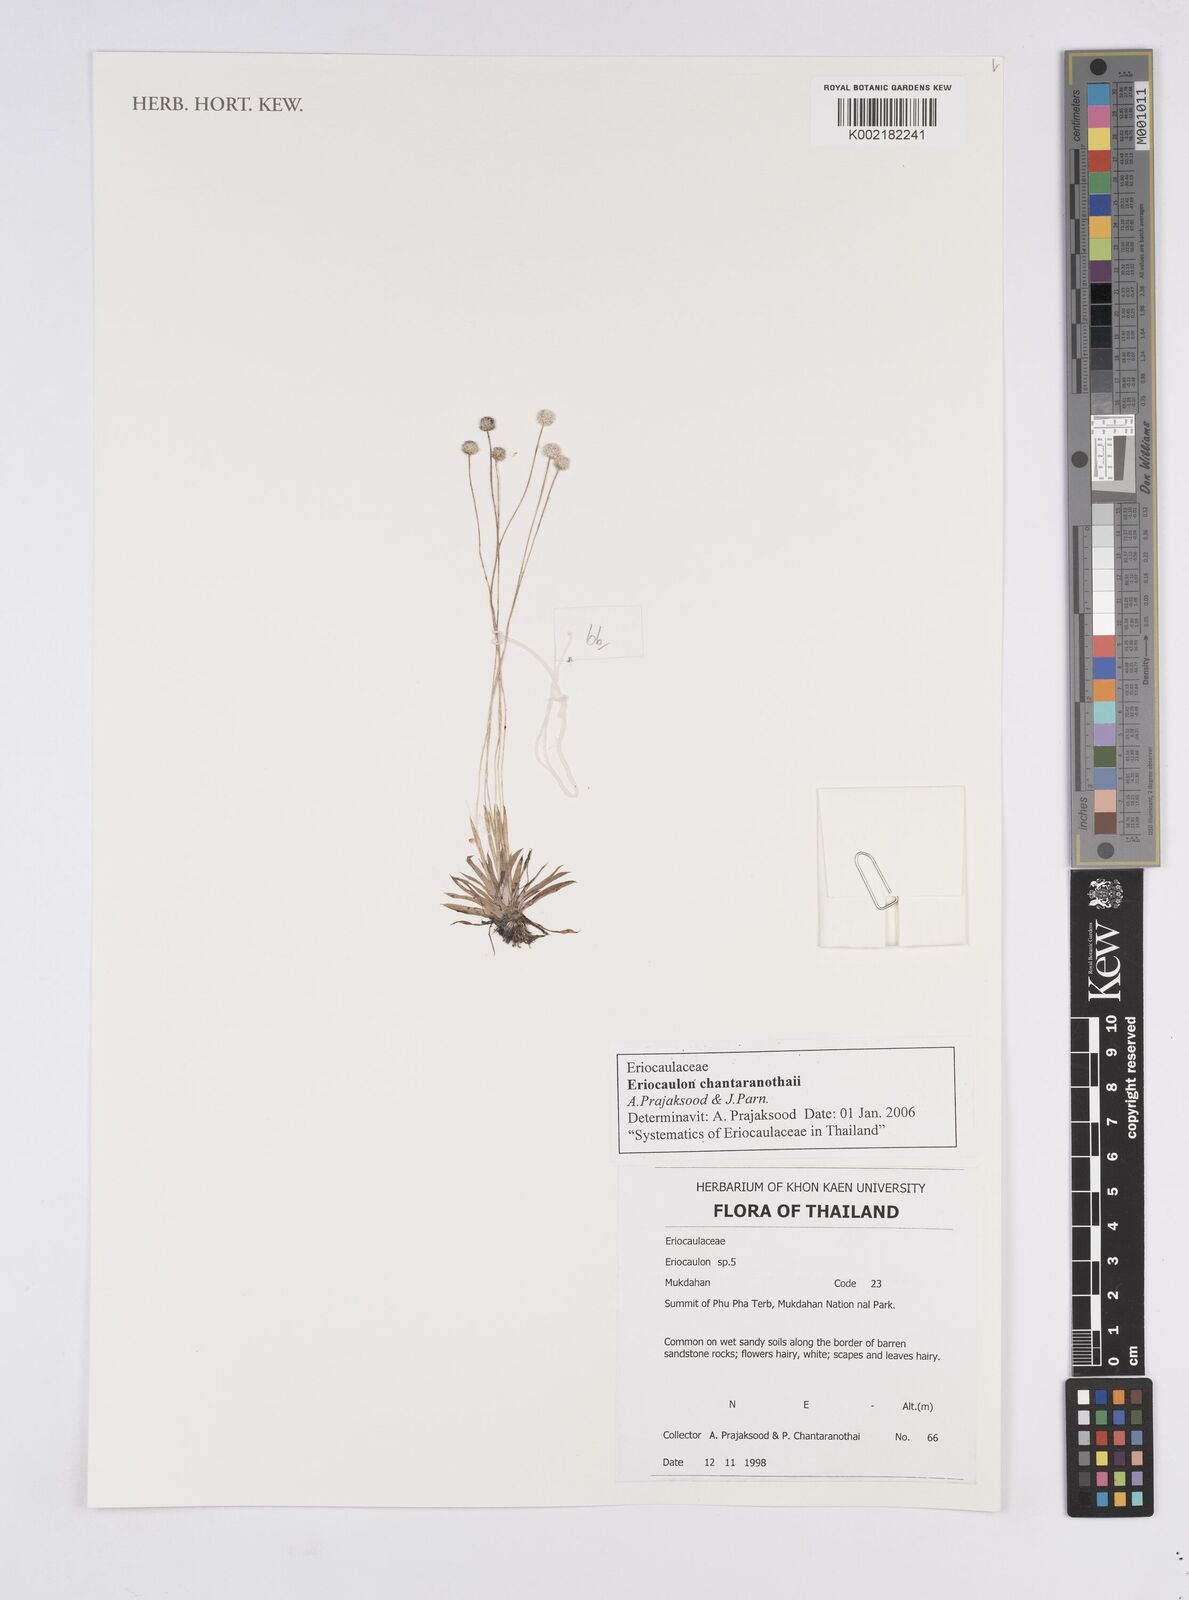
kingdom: Plantae
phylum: Tracheophyta
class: Liliopsida
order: Poales
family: Eriocaulaceae
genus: Eriocaulon
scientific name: Eriocaulon chantaranothaii
